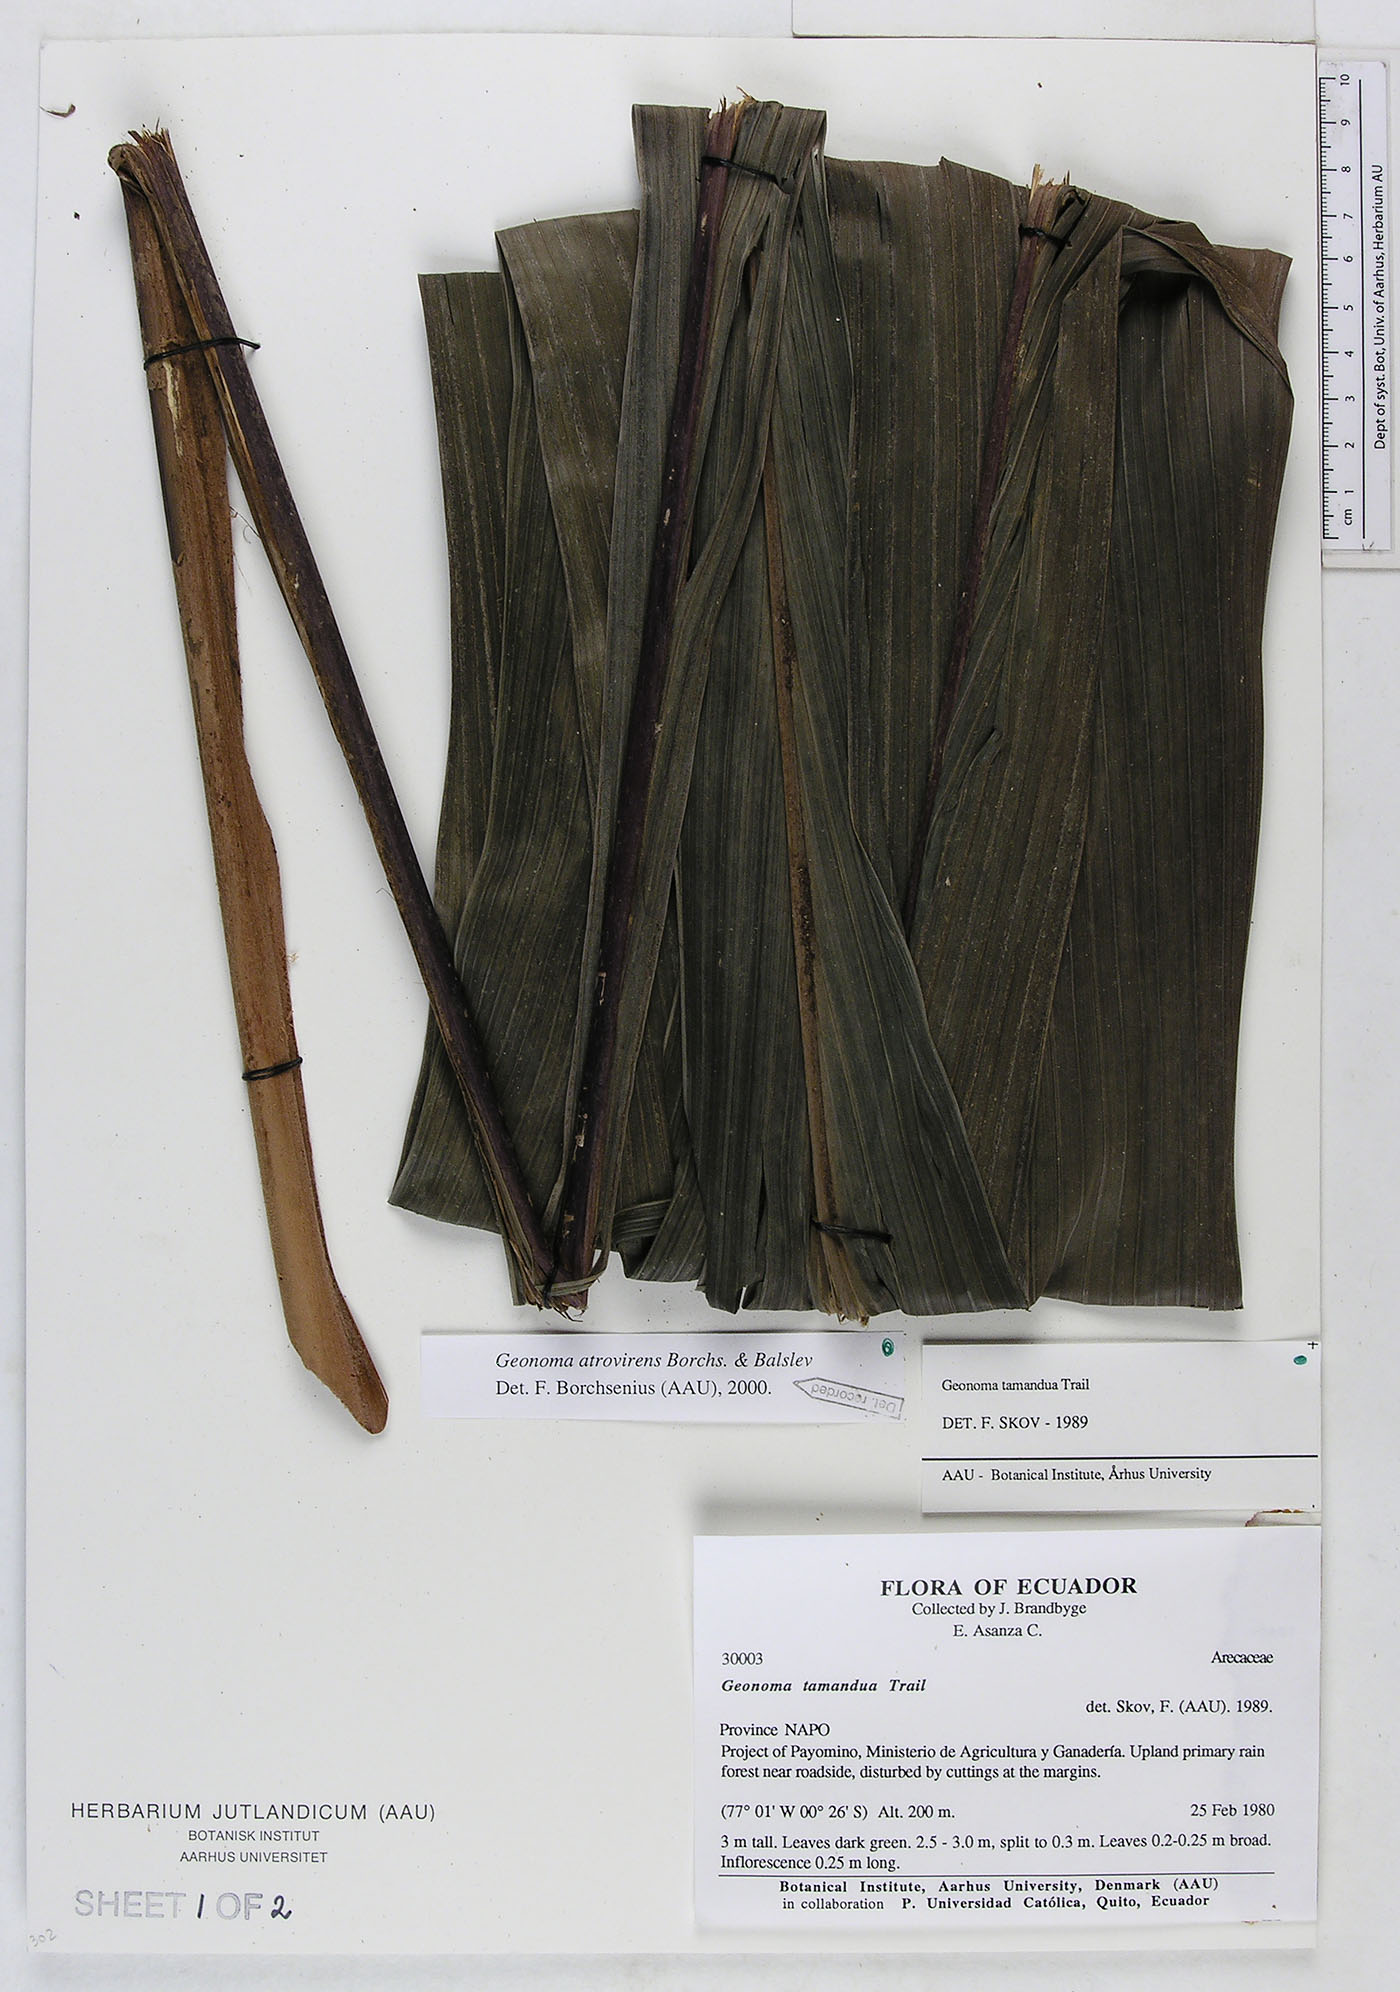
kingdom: Plantae
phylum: Tracheophyta
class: Liliopsida
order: Arecales
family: Arecaceae
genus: Geonoma
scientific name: Geonoma macrostachys
